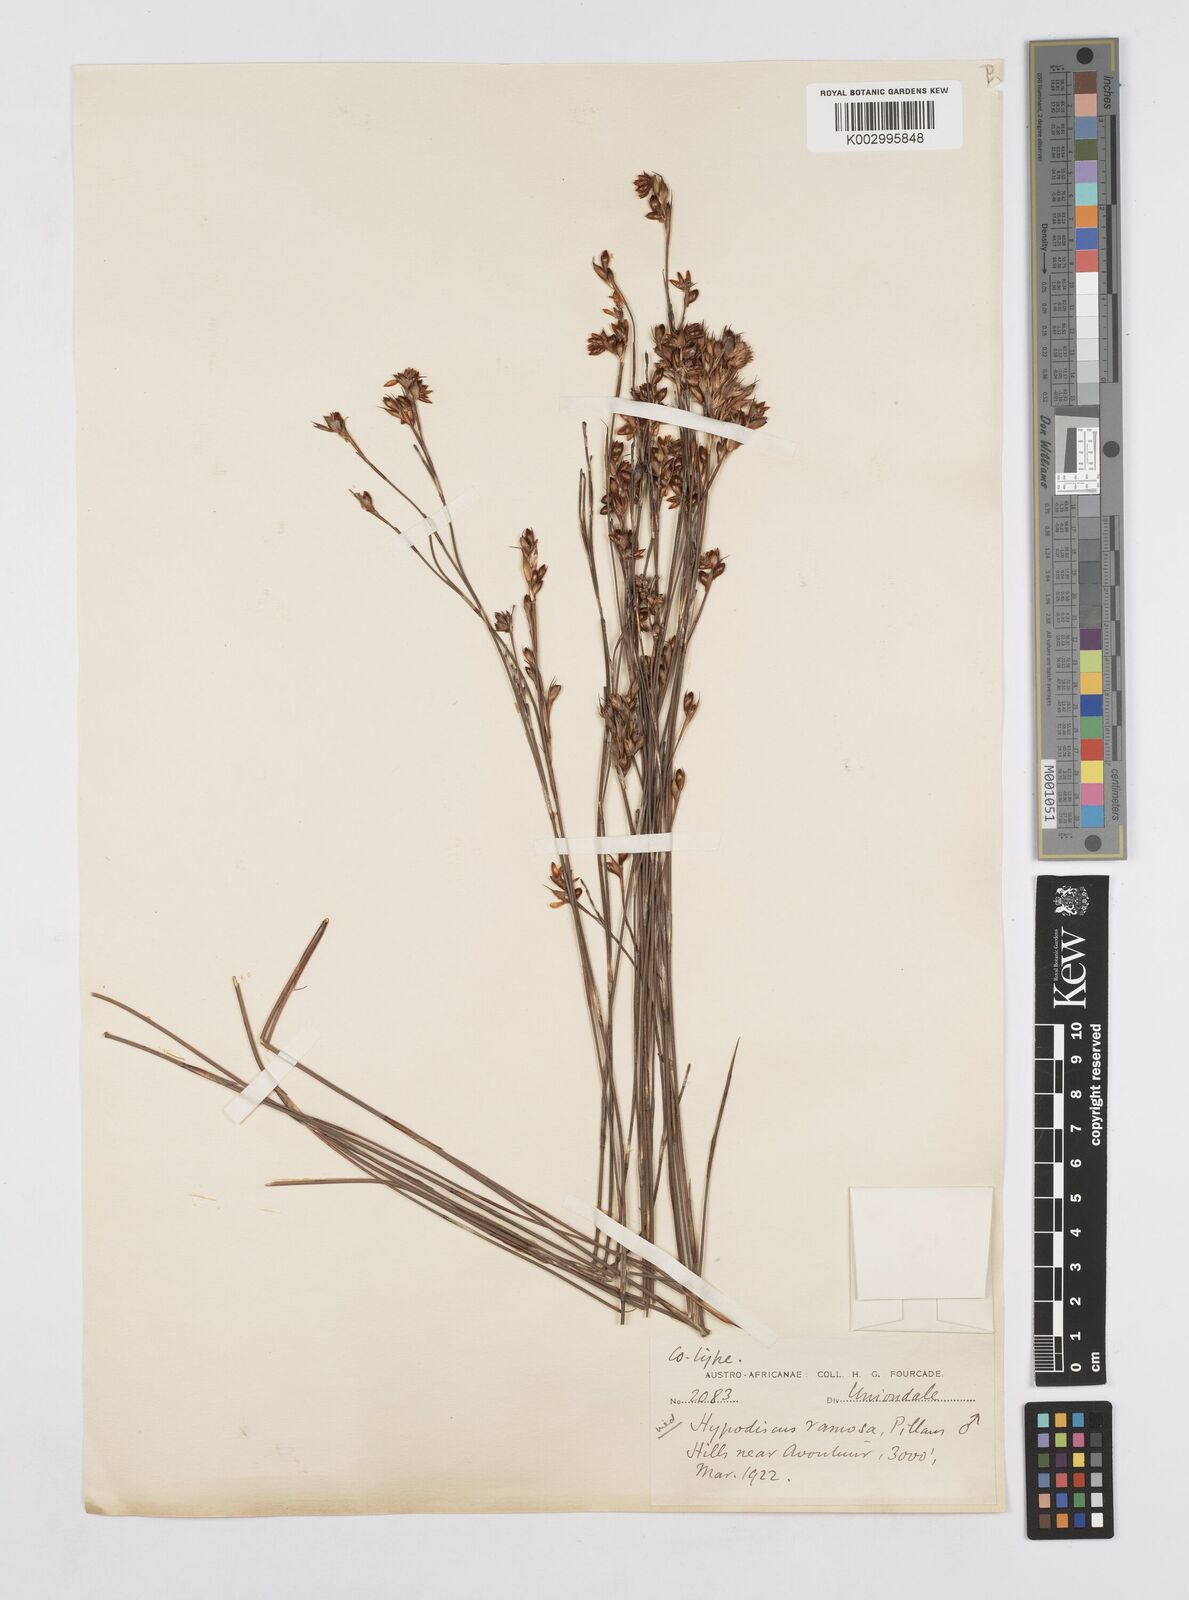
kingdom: Plantae
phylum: Tracheophyta
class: Liliopsida
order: Poales
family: Restionaceae
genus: Mastersiella
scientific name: Mastersiella purpurea
